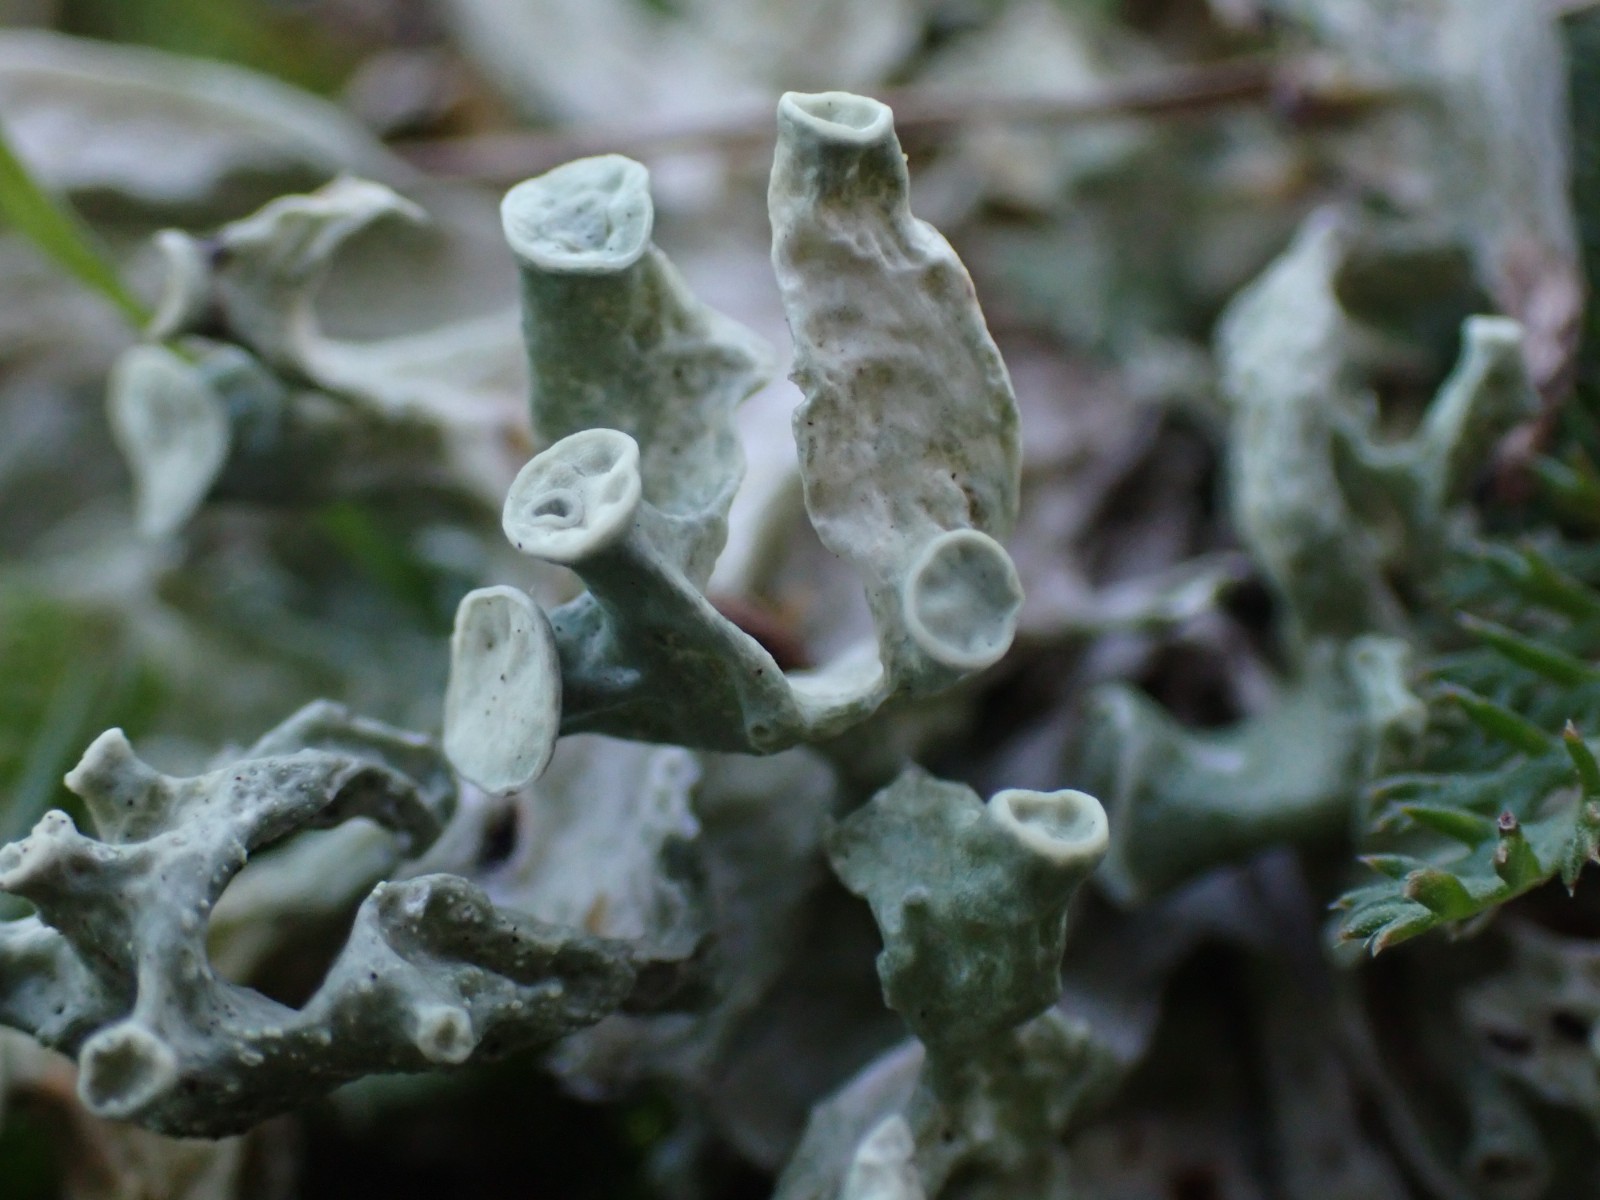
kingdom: Fungi
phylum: Ascomycota
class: Lecanoromycetes
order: Lecanorales
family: Ramalinaceae
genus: Ramalina
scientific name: Ramalina fastigiata
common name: tue-grenlav
